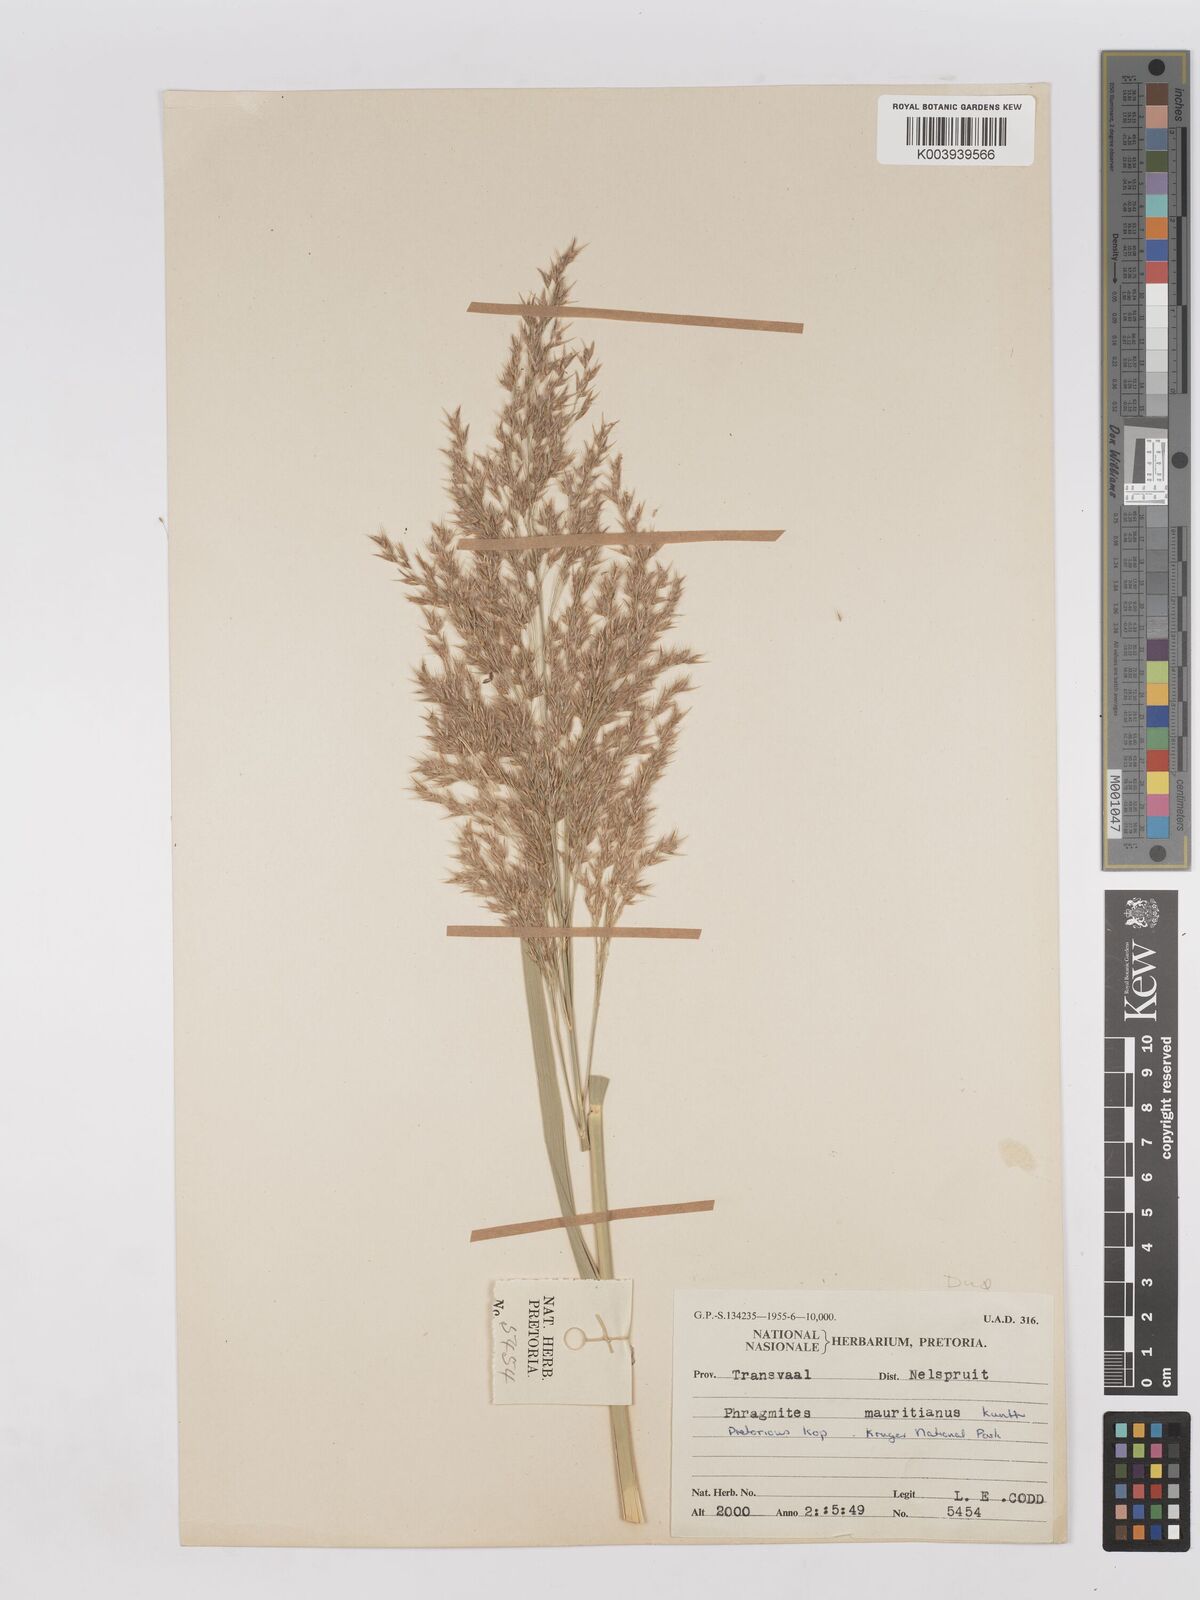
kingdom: Plantae
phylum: Tracheophyta
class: Liliopsida
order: Poales
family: Poaceae
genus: Phragmites
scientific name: Phragmites mauritianus
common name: Reed grass
